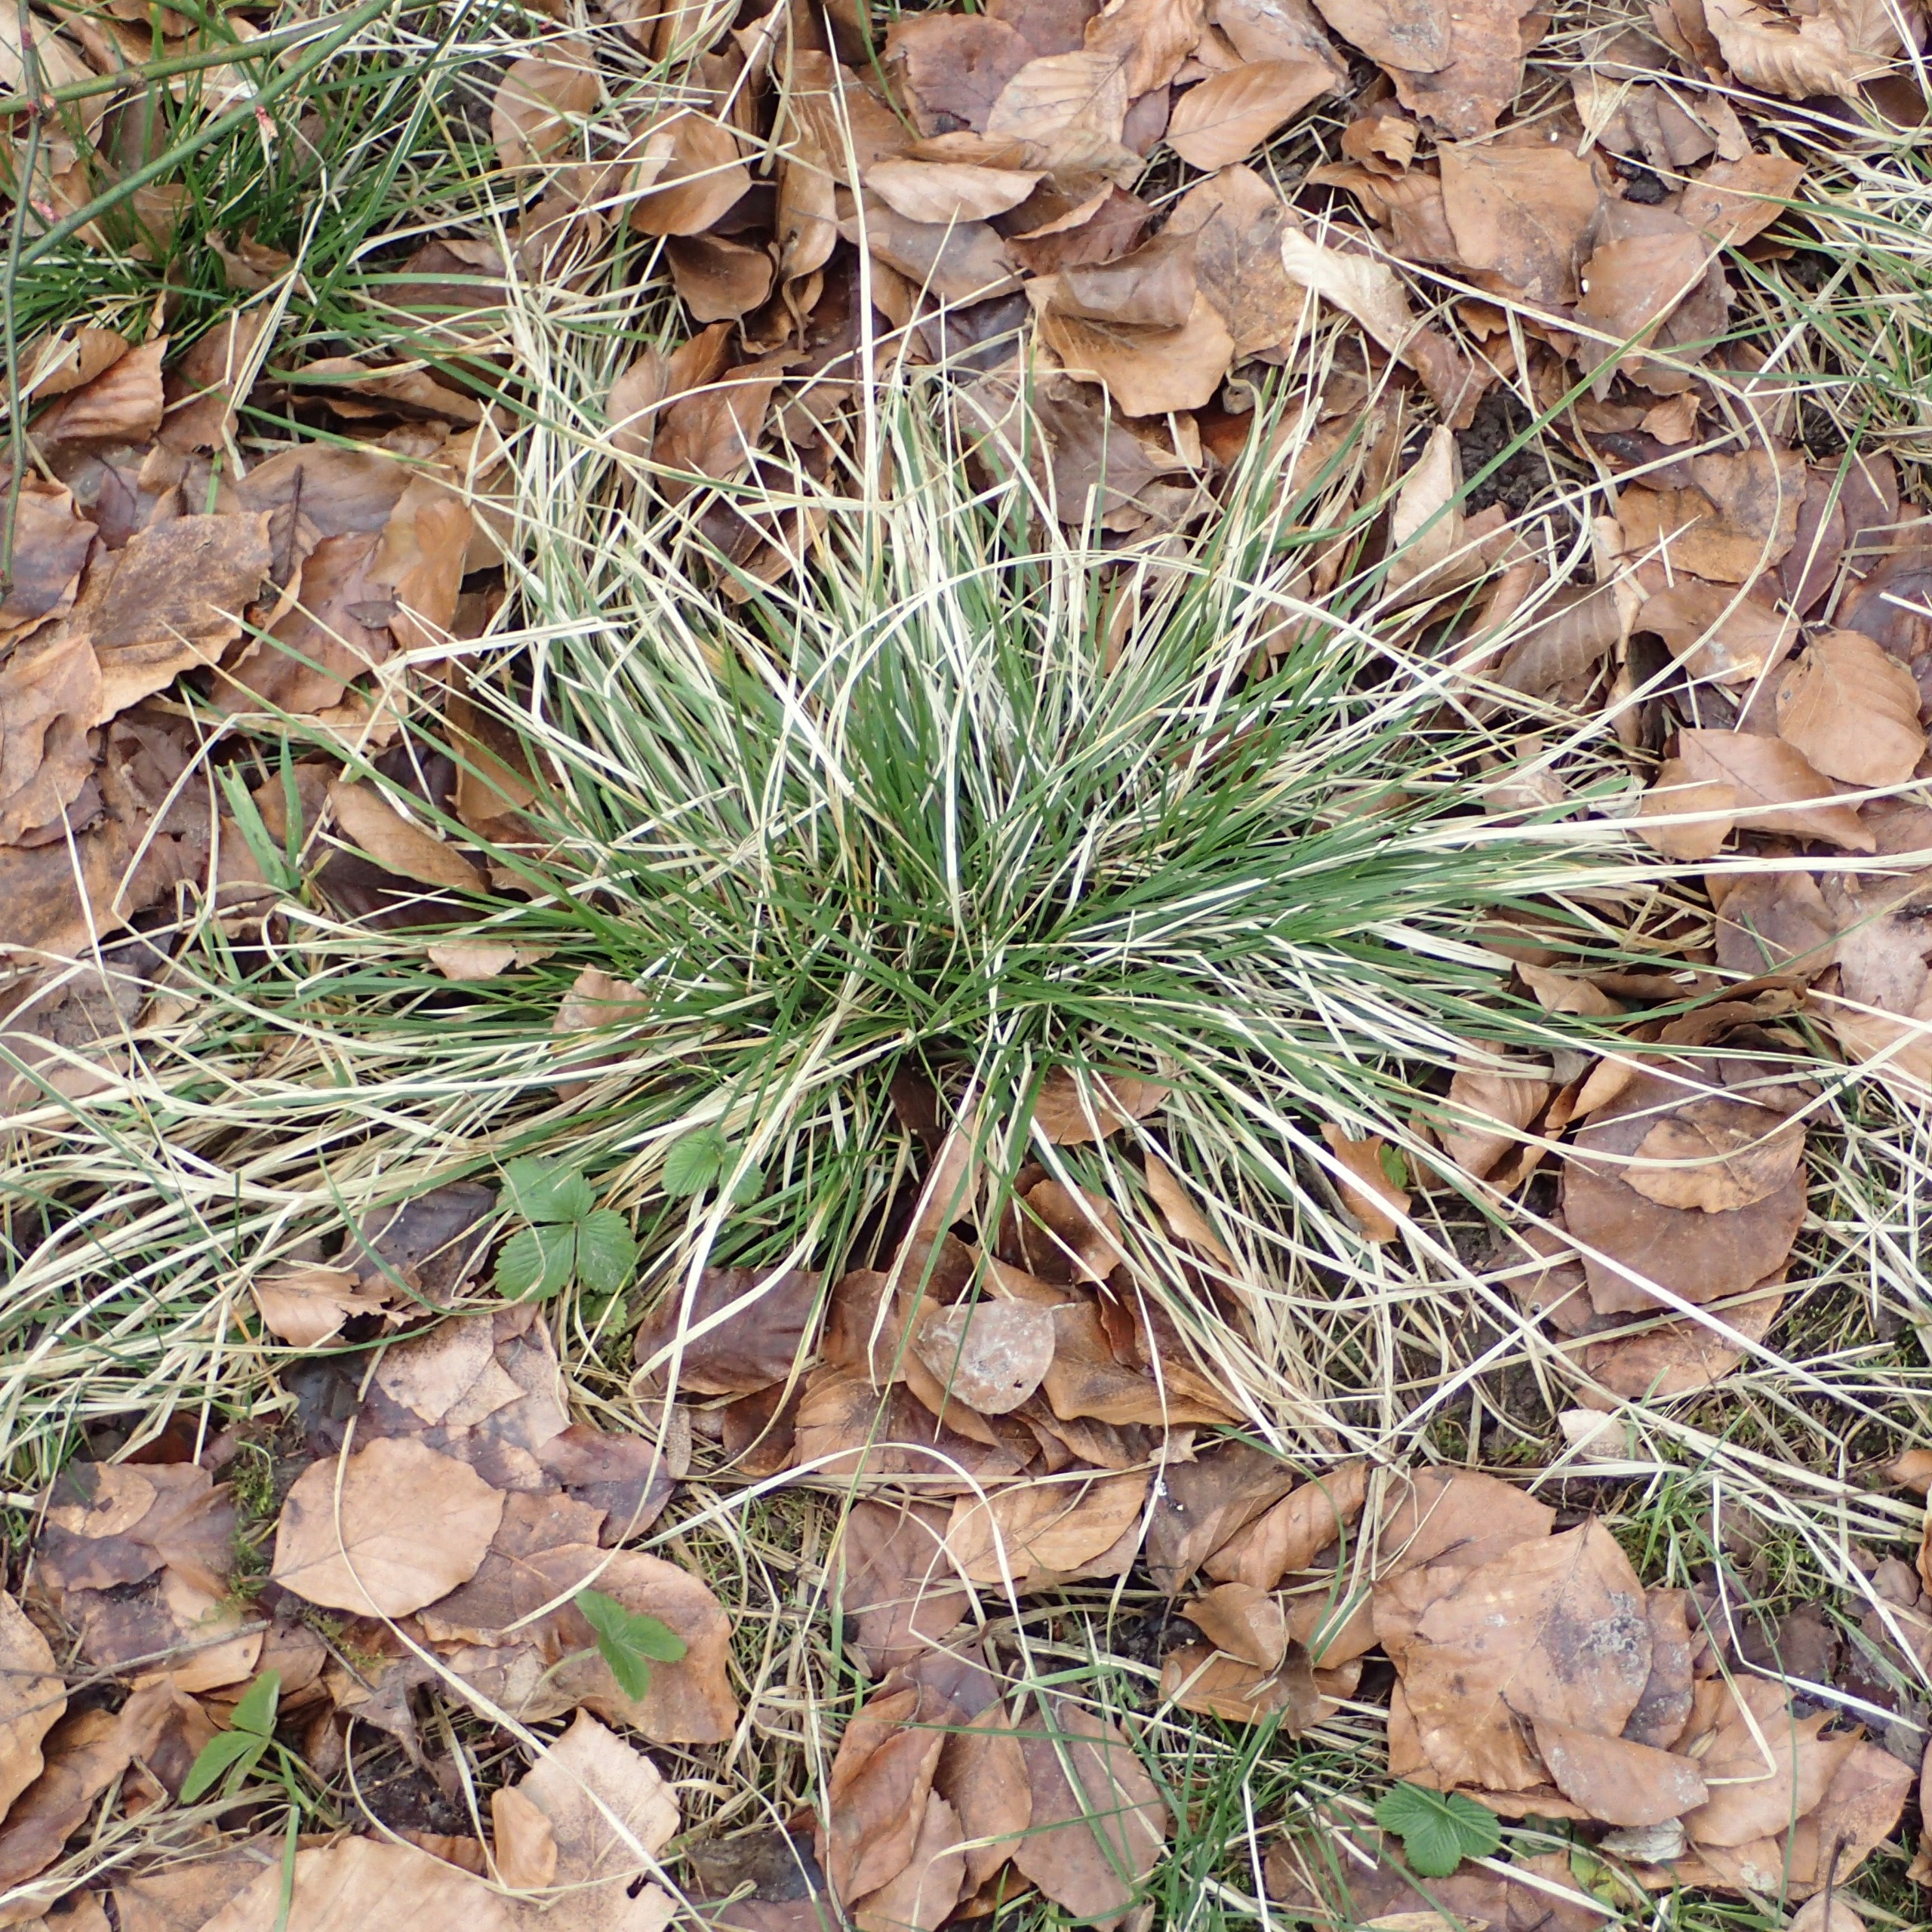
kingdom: Plantae
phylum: Tracheophyta
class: Liliopsida
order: Poales
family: Poaceae
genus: Deschampsia
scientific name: Deschampsia cespitosa
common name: Mose-bunke
